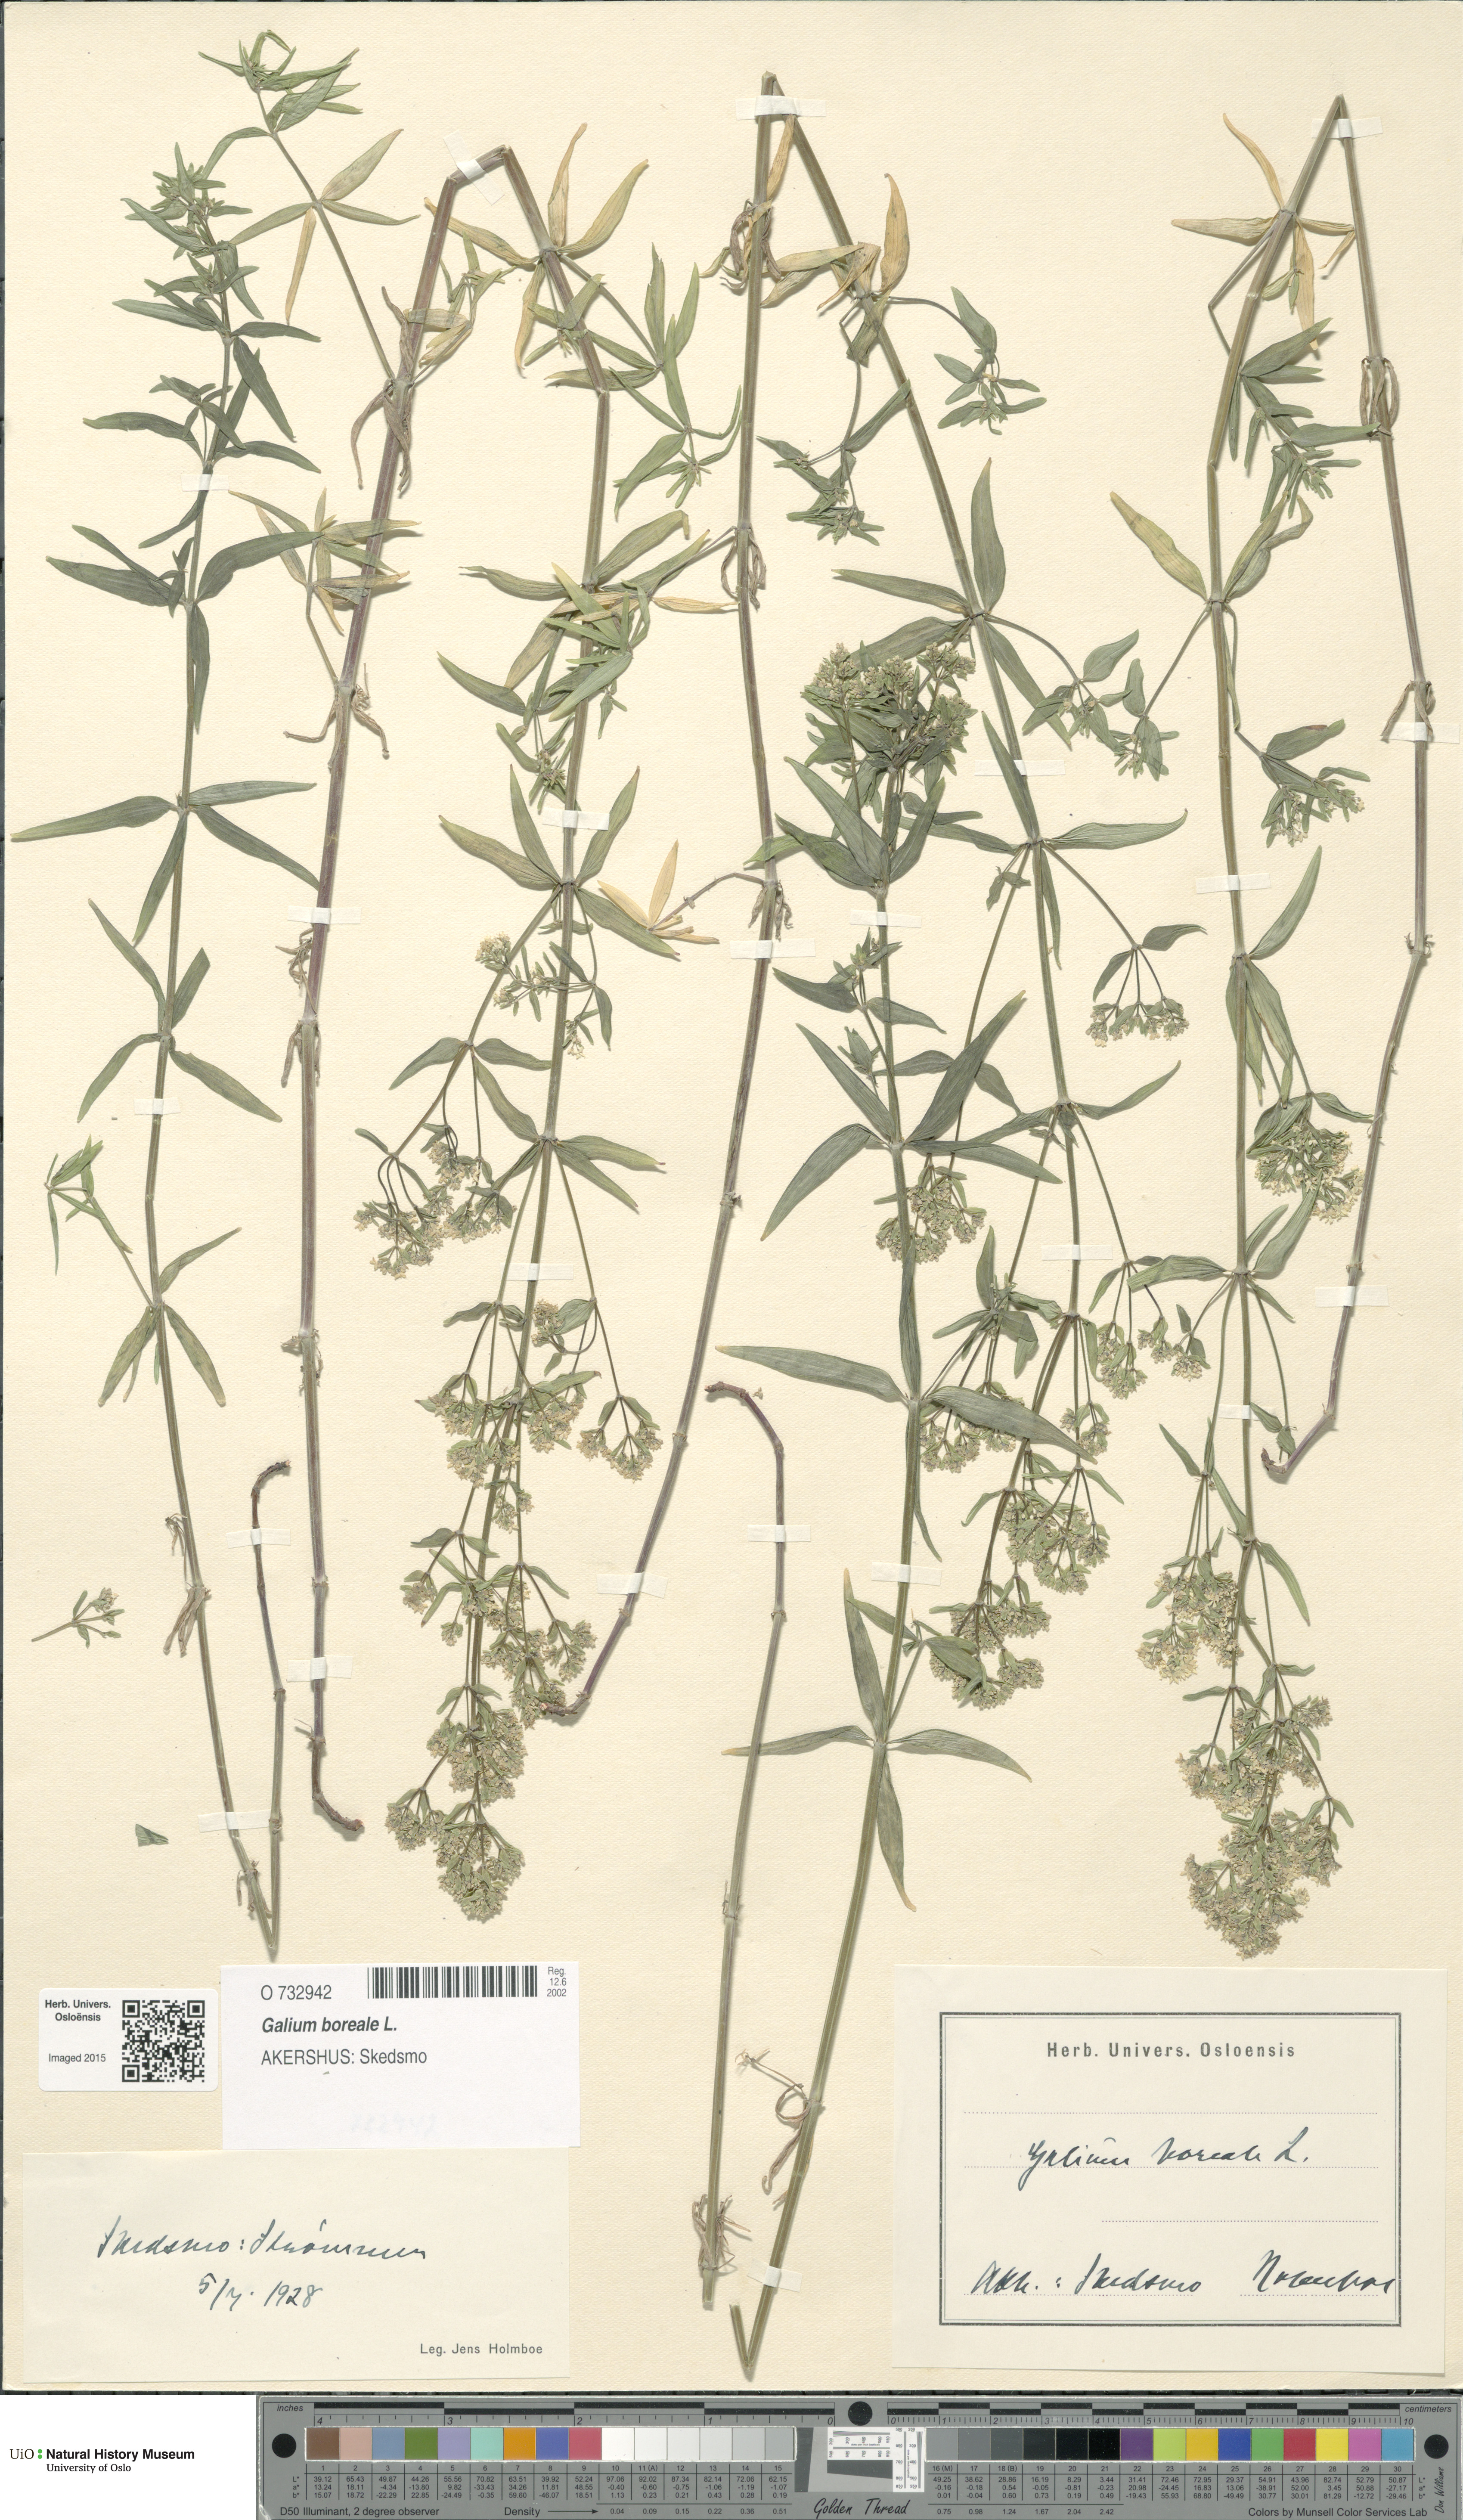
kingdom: Plantae
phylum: Tracheophyta
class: Magnoliopsida
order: Gentianales
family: Rubiaceae
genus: Galium
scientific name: Galium boreale
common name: Northern bedstraw
